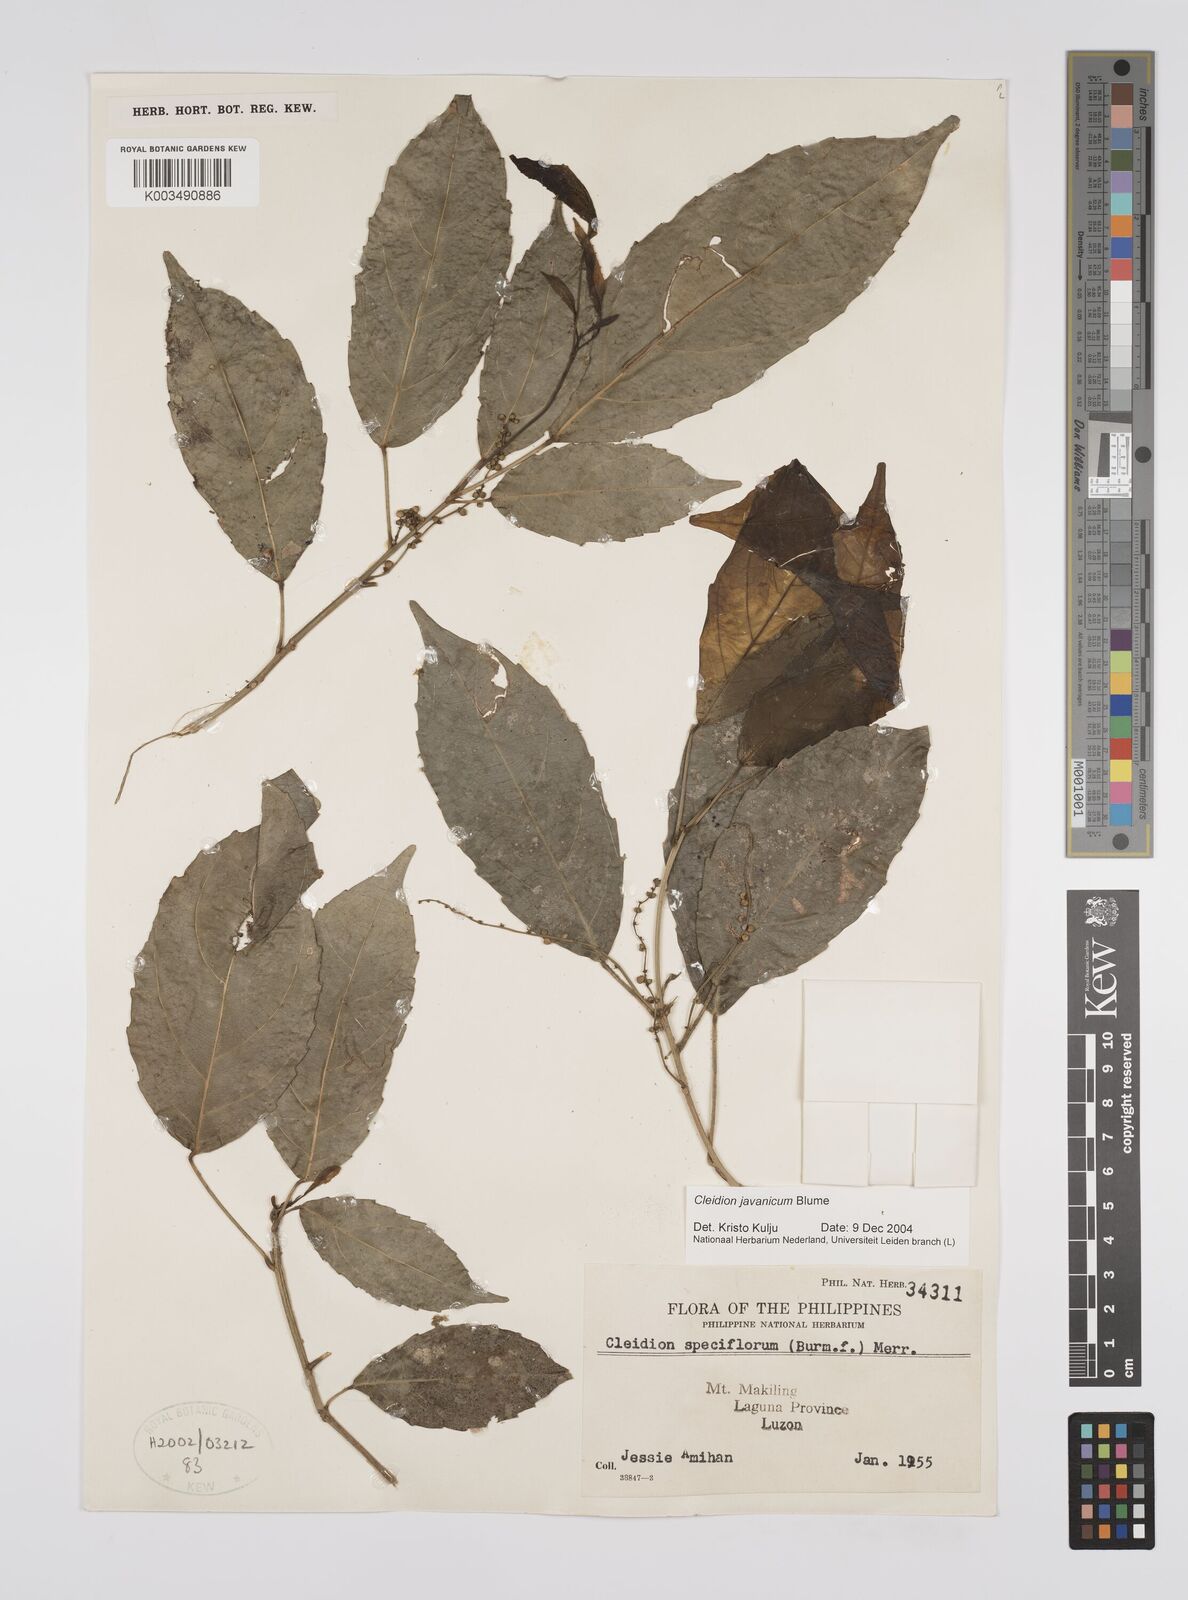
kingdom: Plantae
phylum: Tracheophyta
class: Magnoliopsida
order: Malpighiales
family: Euphorbiaceae
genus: Cleidion
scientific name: Cleidion javanicum
